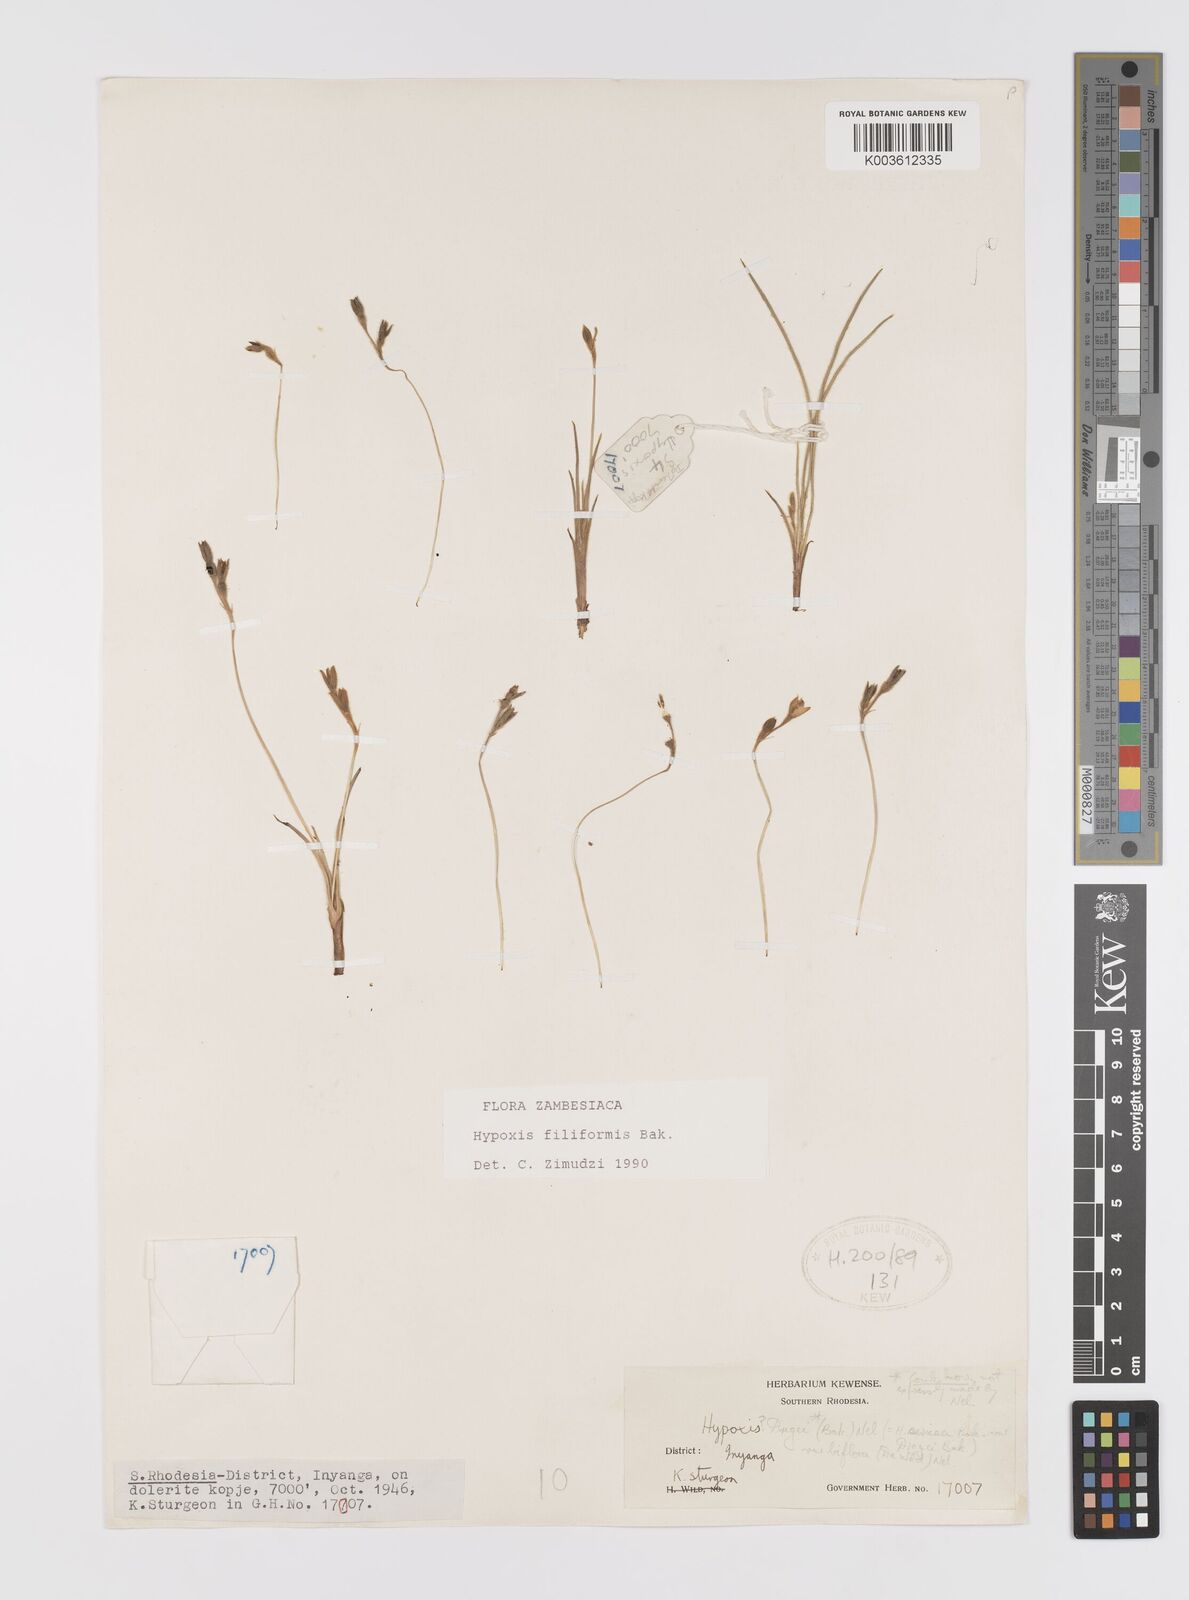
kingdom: Plantae
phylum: Tracheophyta
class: Liliopsida
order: Asparagales
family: Hypoxidaceae
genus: Hypoxis
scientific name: Hypoxis filiformis
